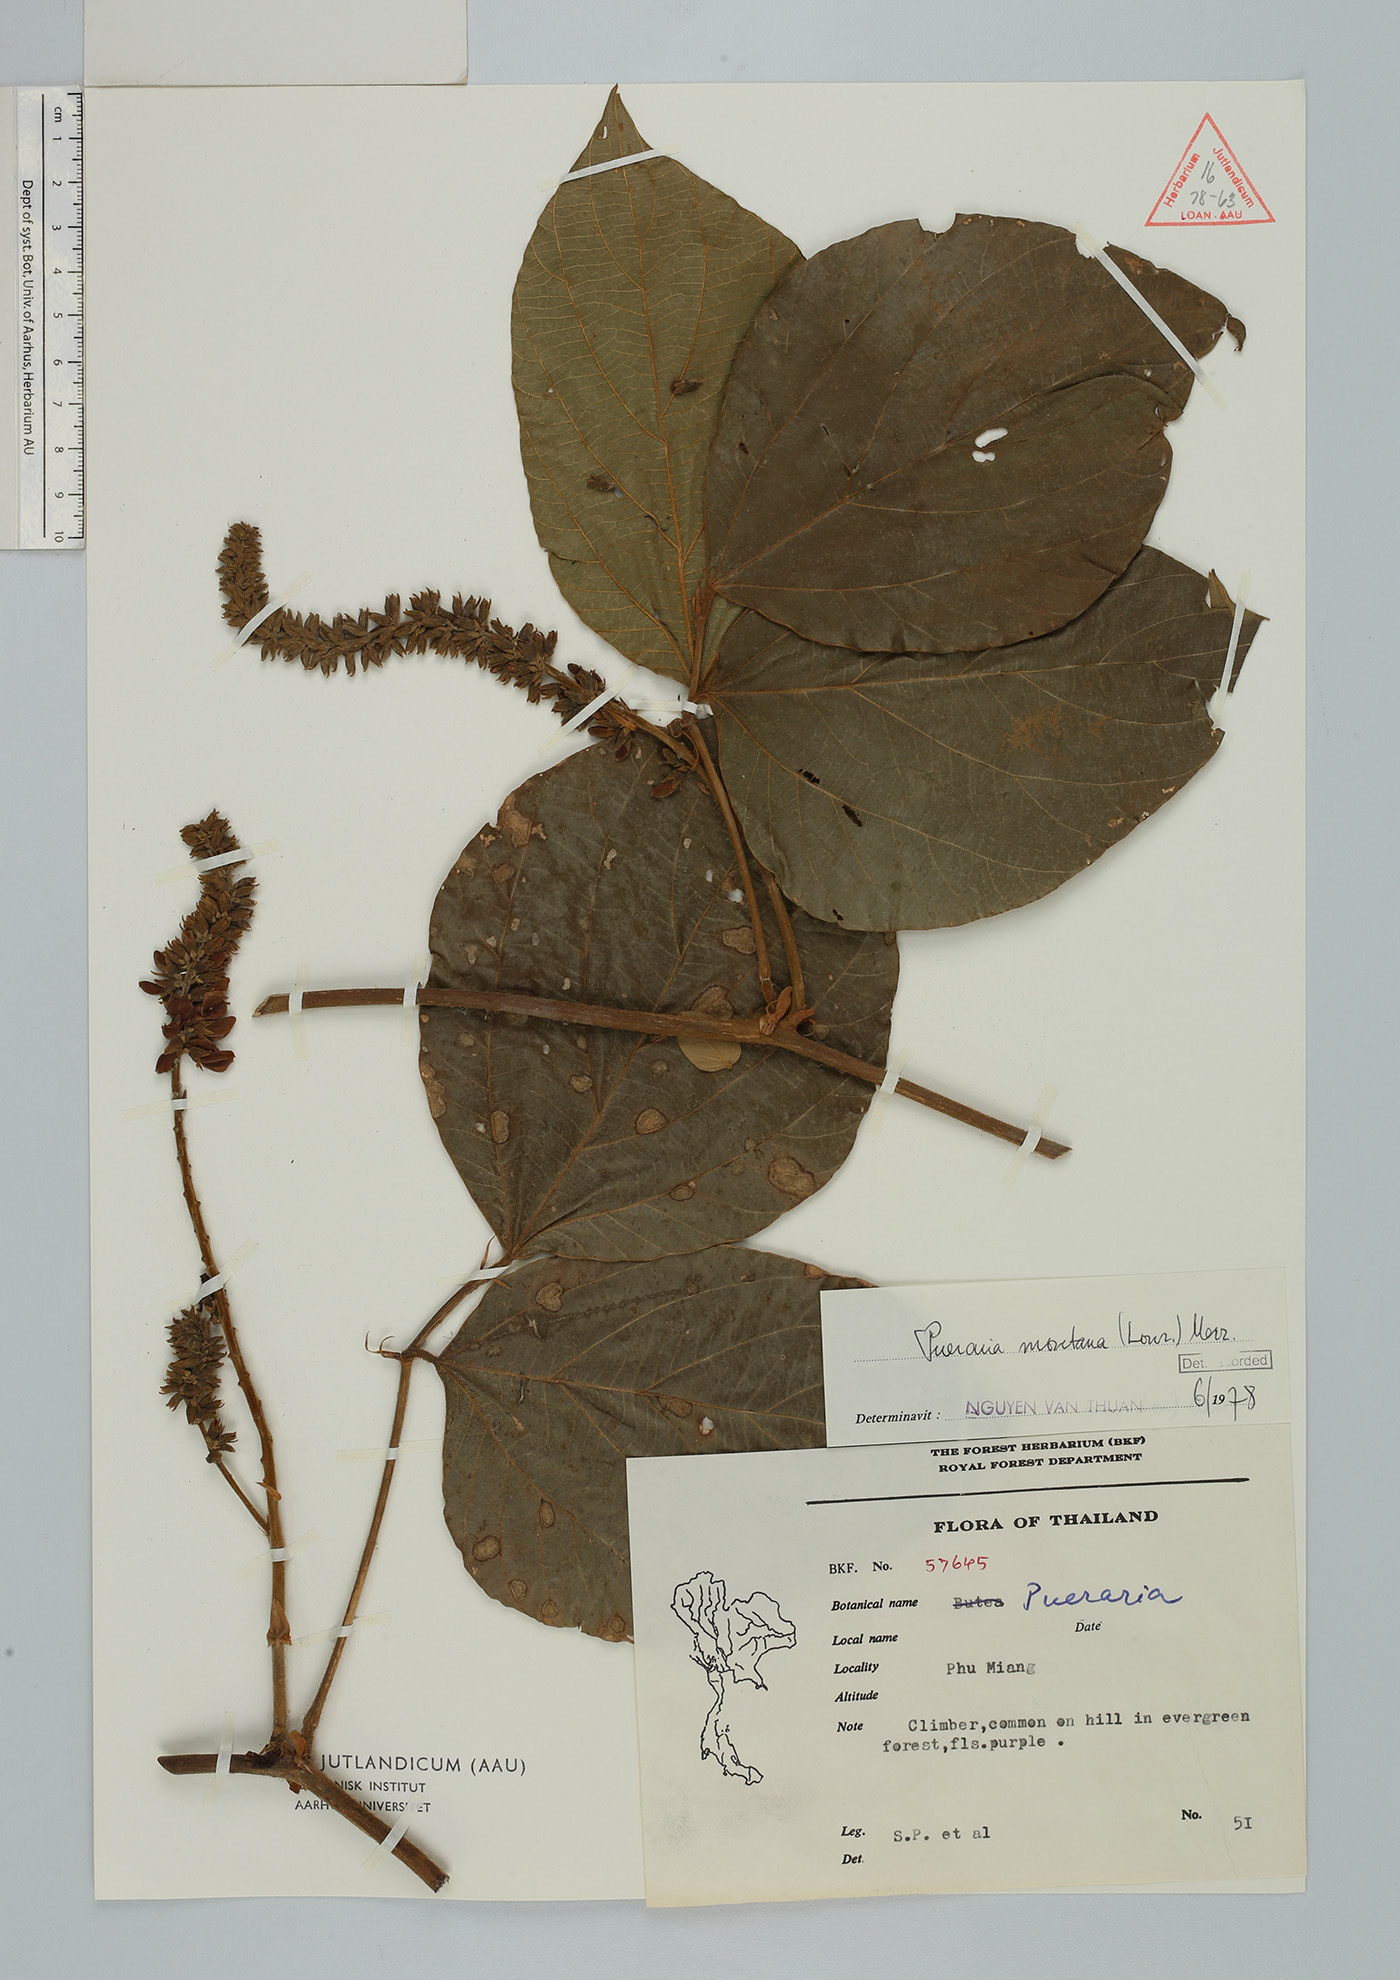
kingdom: Plantae
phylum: Tracheophyta
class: Magnoliopsida
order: Fabales
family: Fabaceae
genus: Pueraria
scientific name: Pueraria montana
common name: Kudzu
